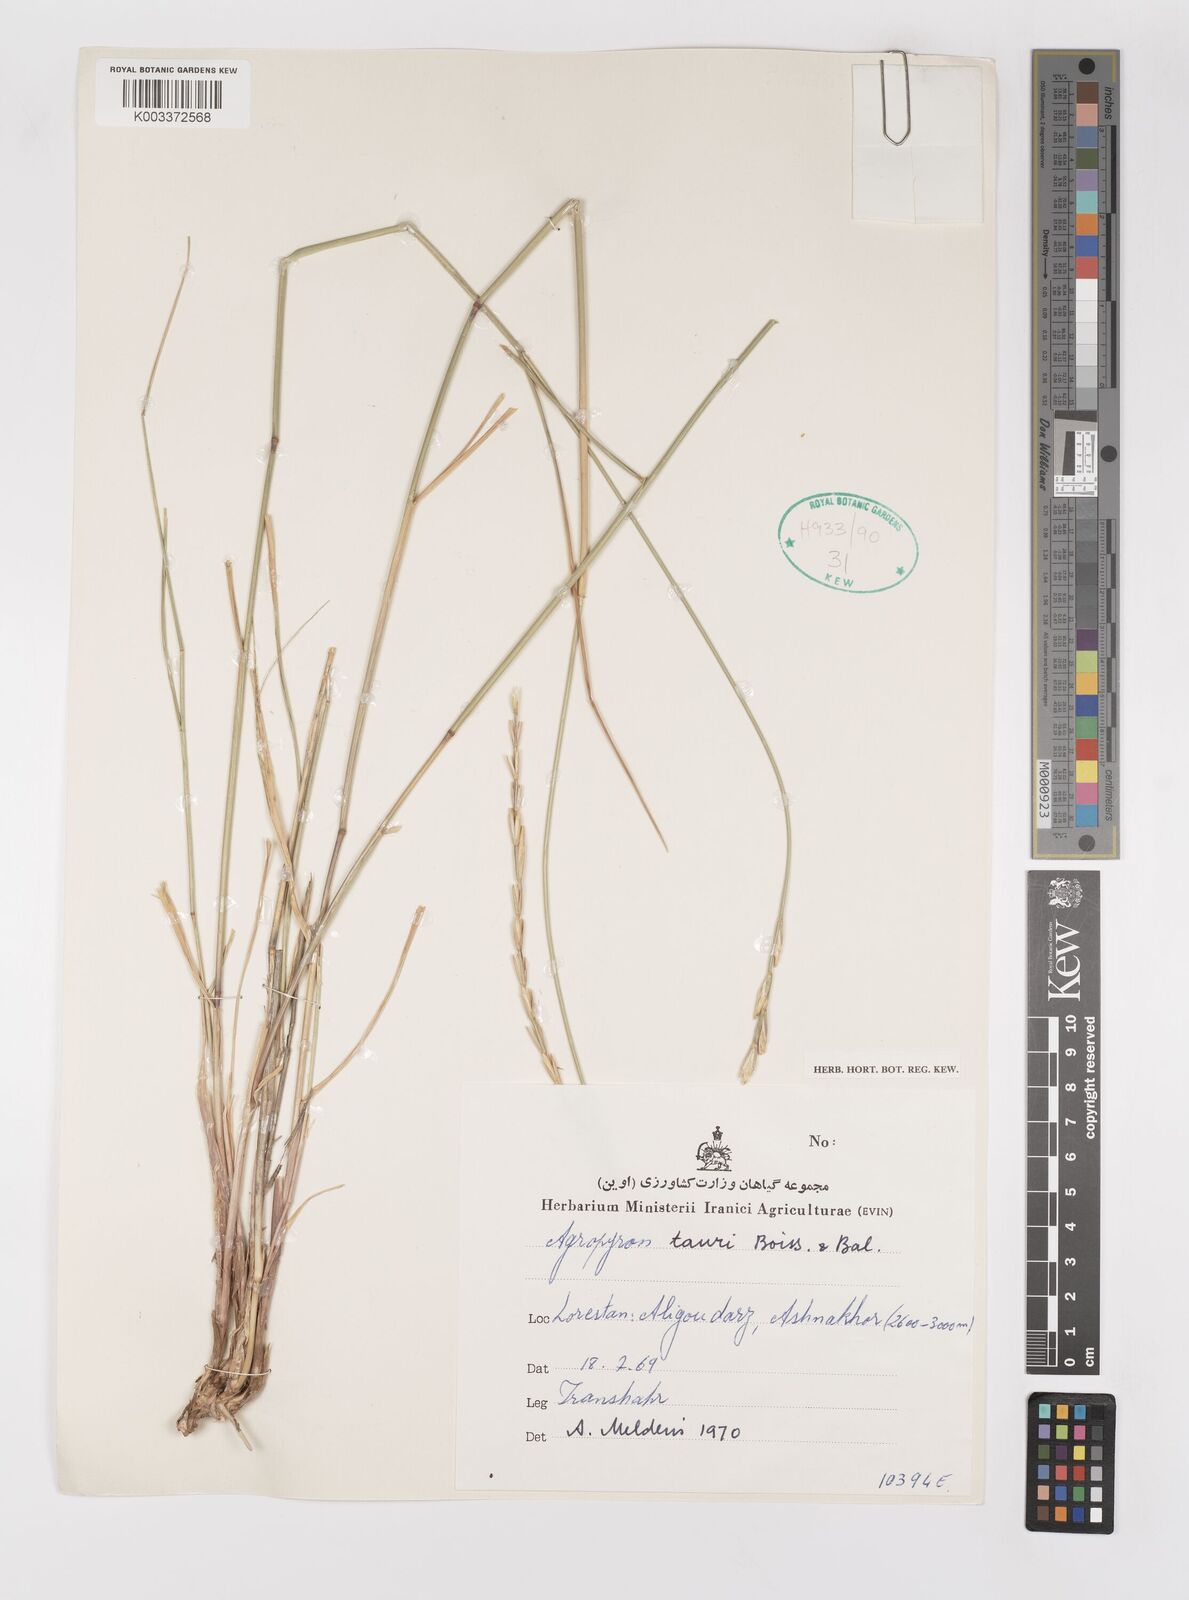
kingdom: Plantae
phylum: Tracheophyta
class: Liliopsida
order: Poales
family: Poaceae
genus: Pseudoroegneria
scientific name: Pseudoroegneria tauri
